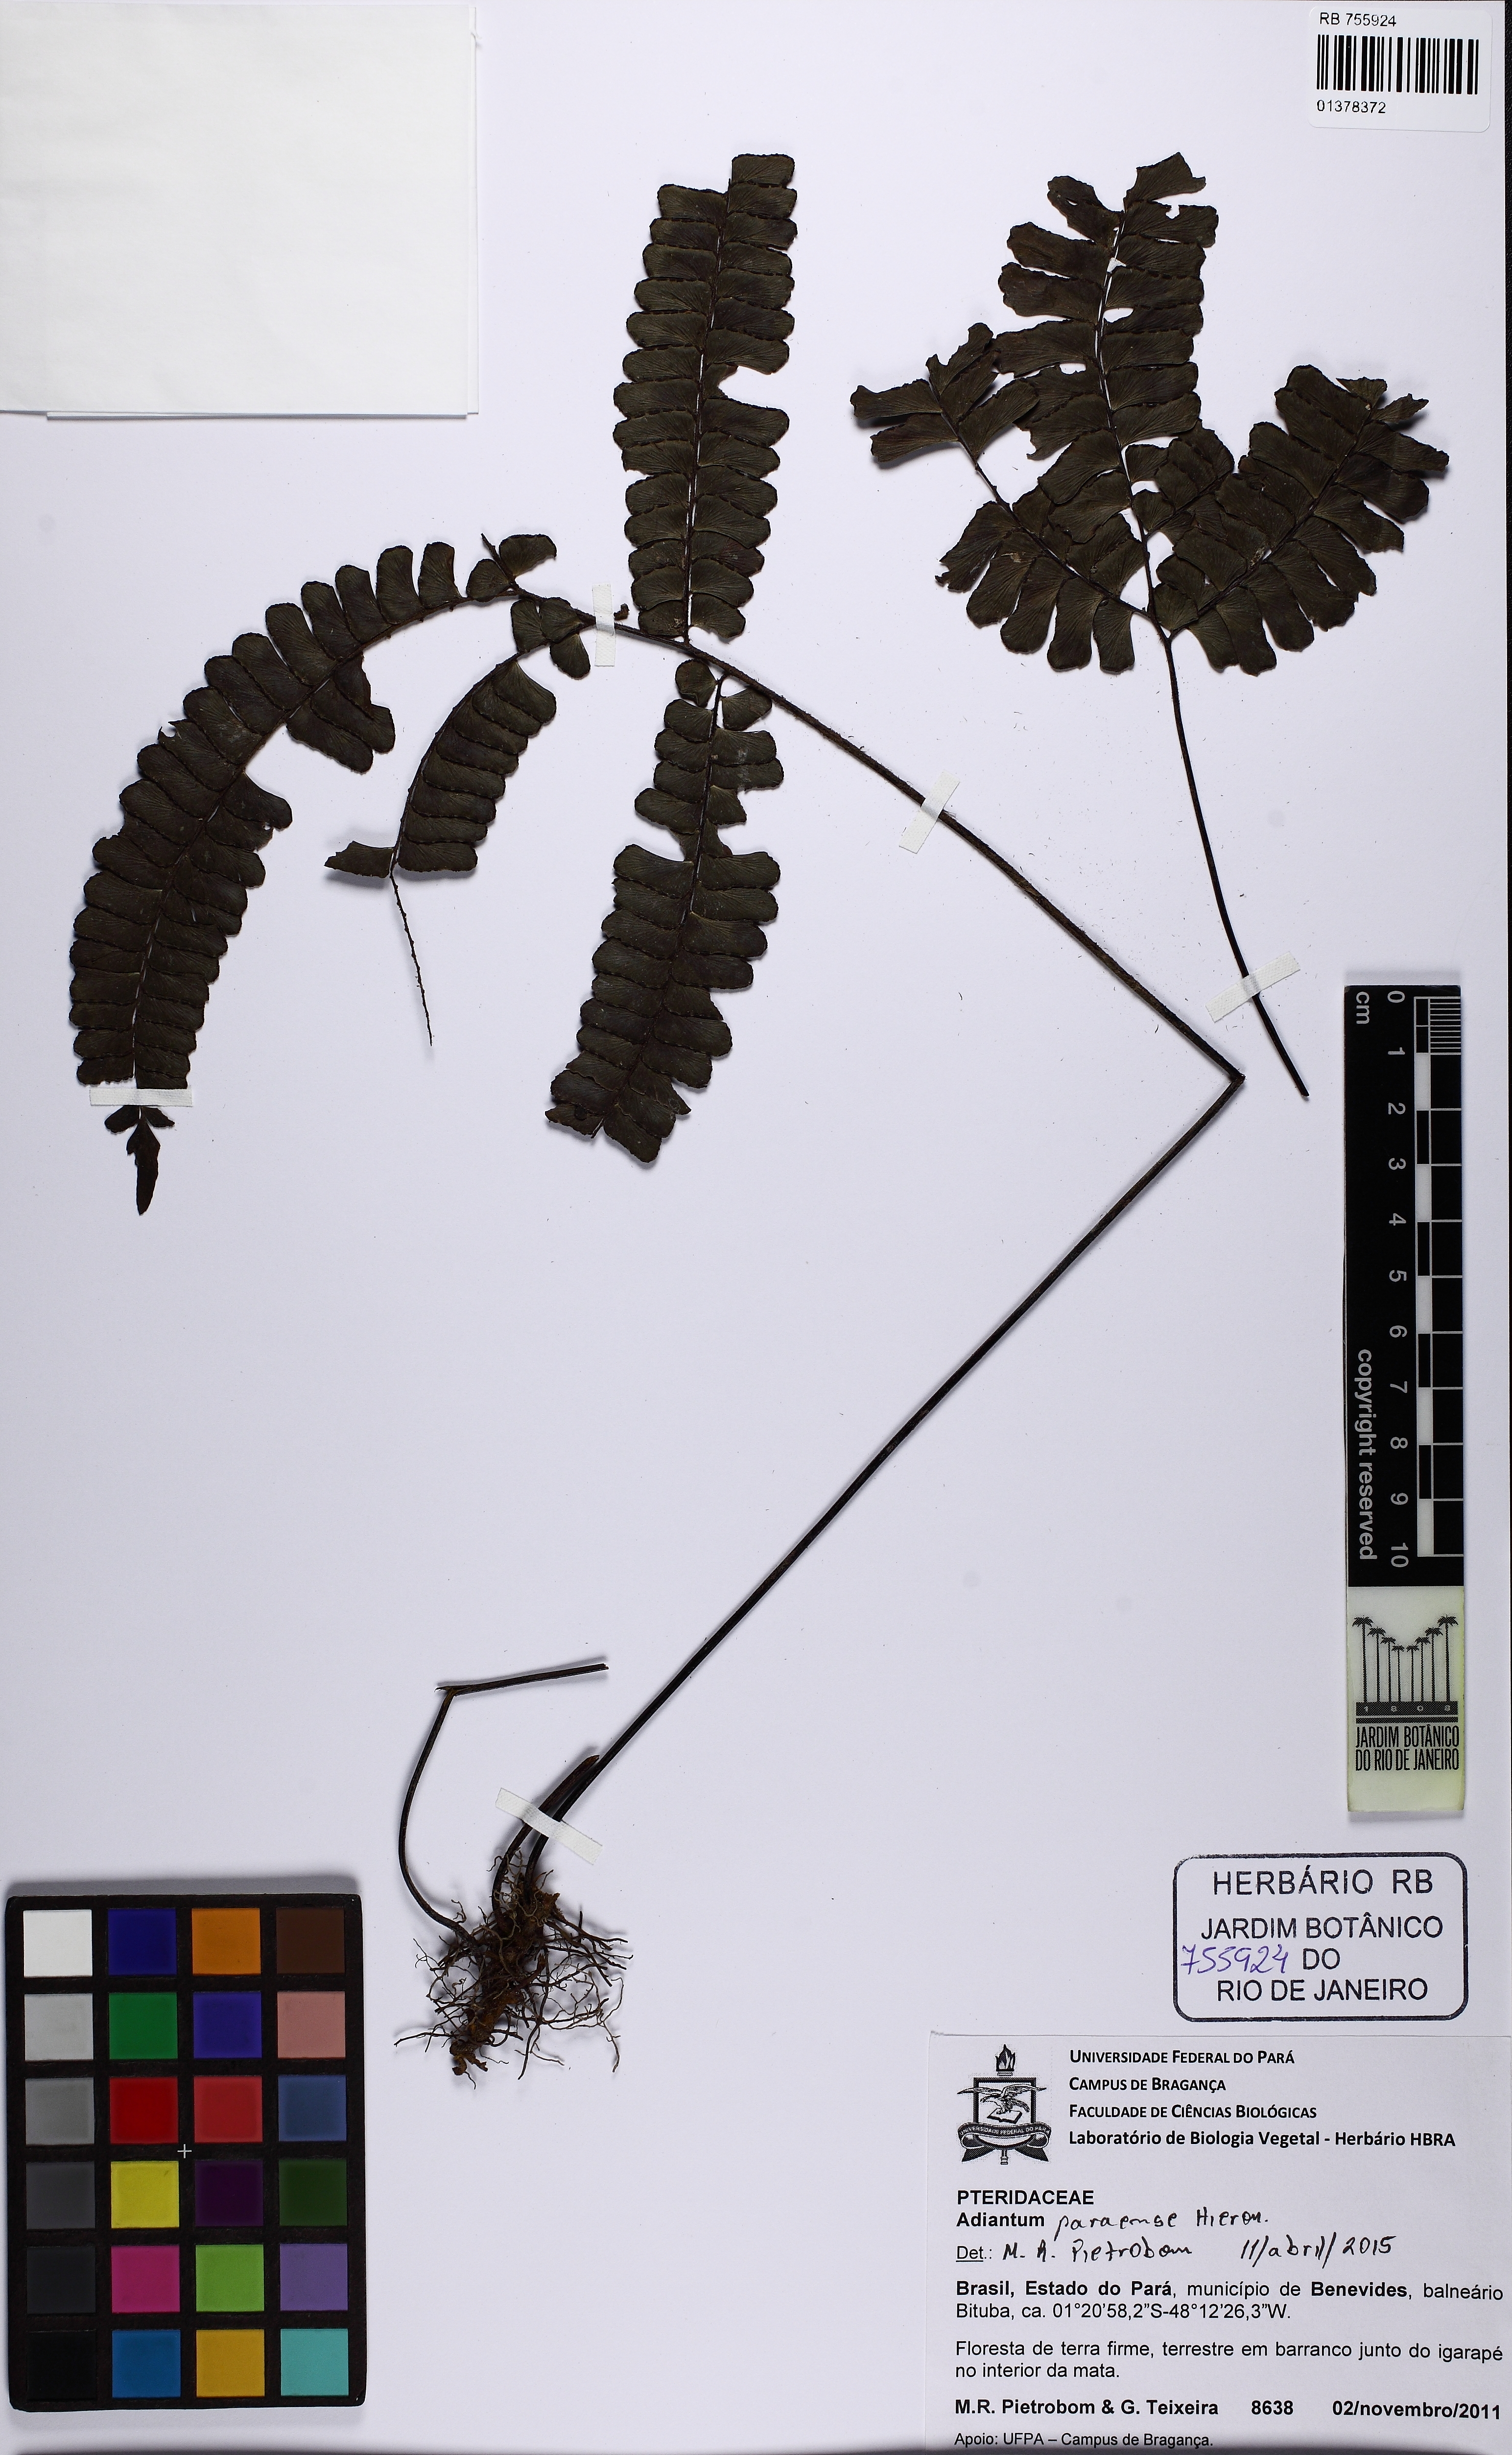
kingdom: Plantae
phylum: Tracheophyta
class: Polypodiopsida
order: Polypodiales
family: Pteridaceae
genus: Adiantum
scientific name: Adiantum paraense
